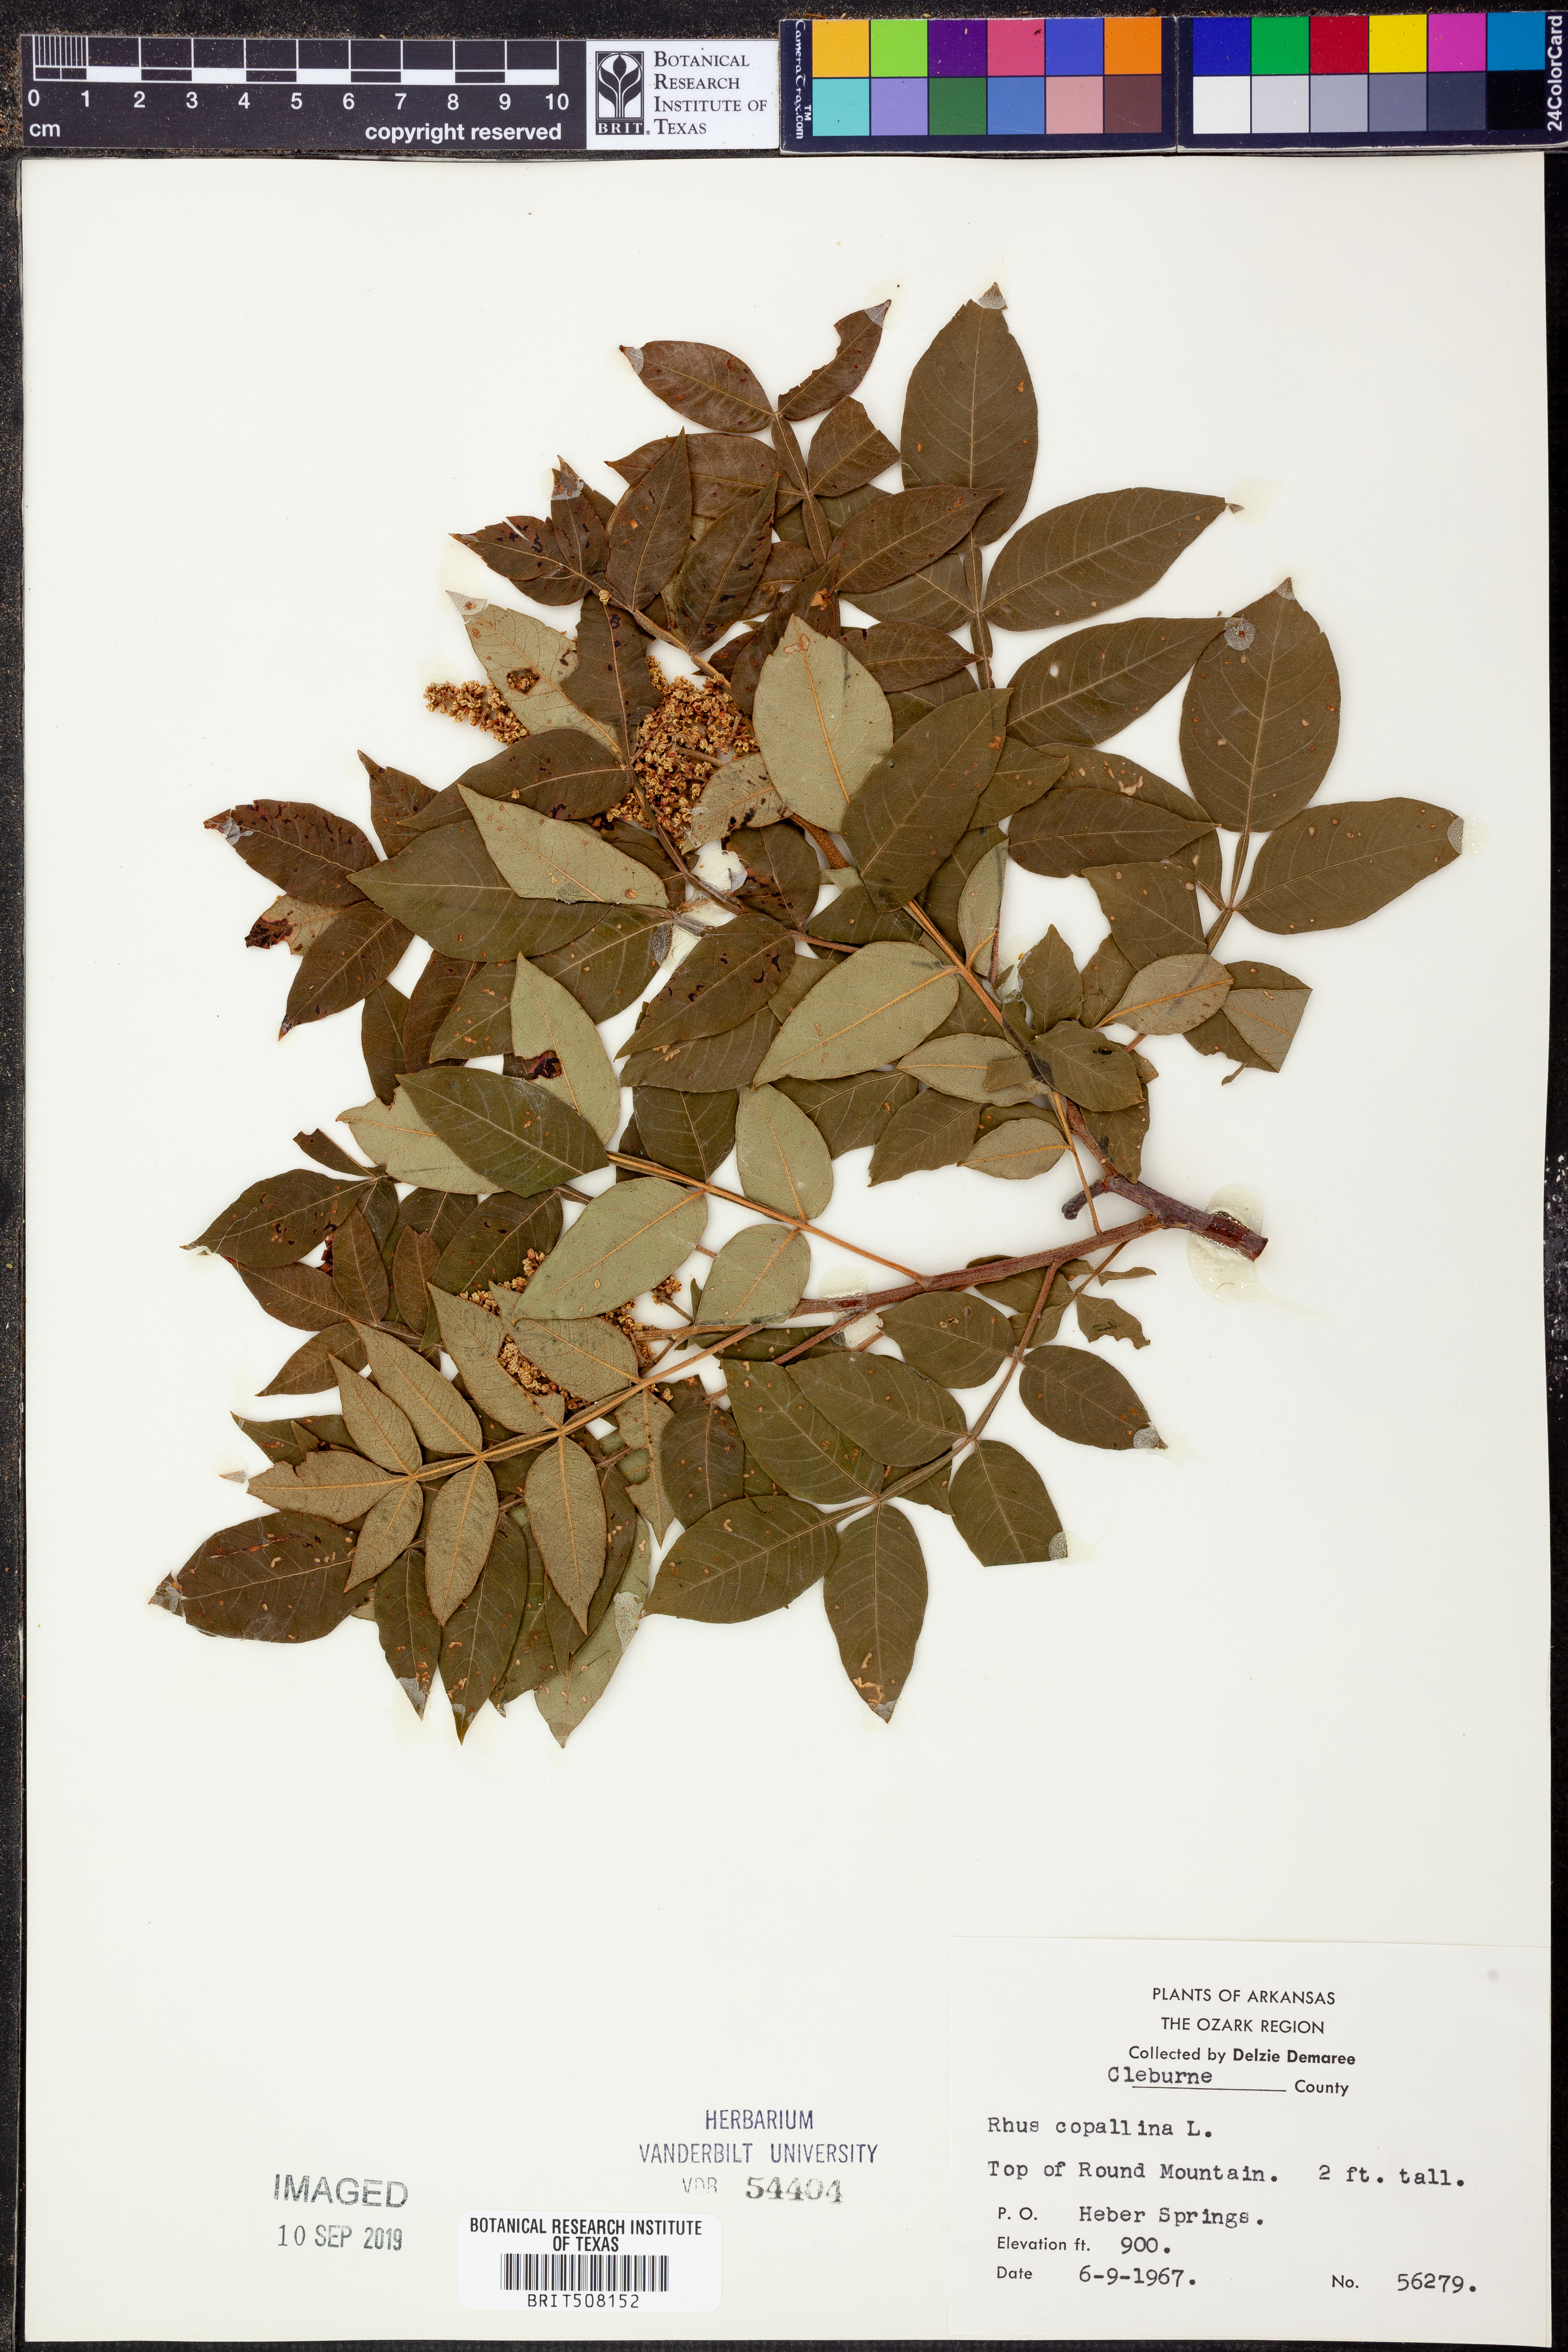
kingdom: Plantae
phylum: Tracheophyta
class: Magnoliopsida
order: Sapindales
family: Anacardiaceae
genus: Rhus
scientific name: Rhus copallina
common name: Shining sumac
